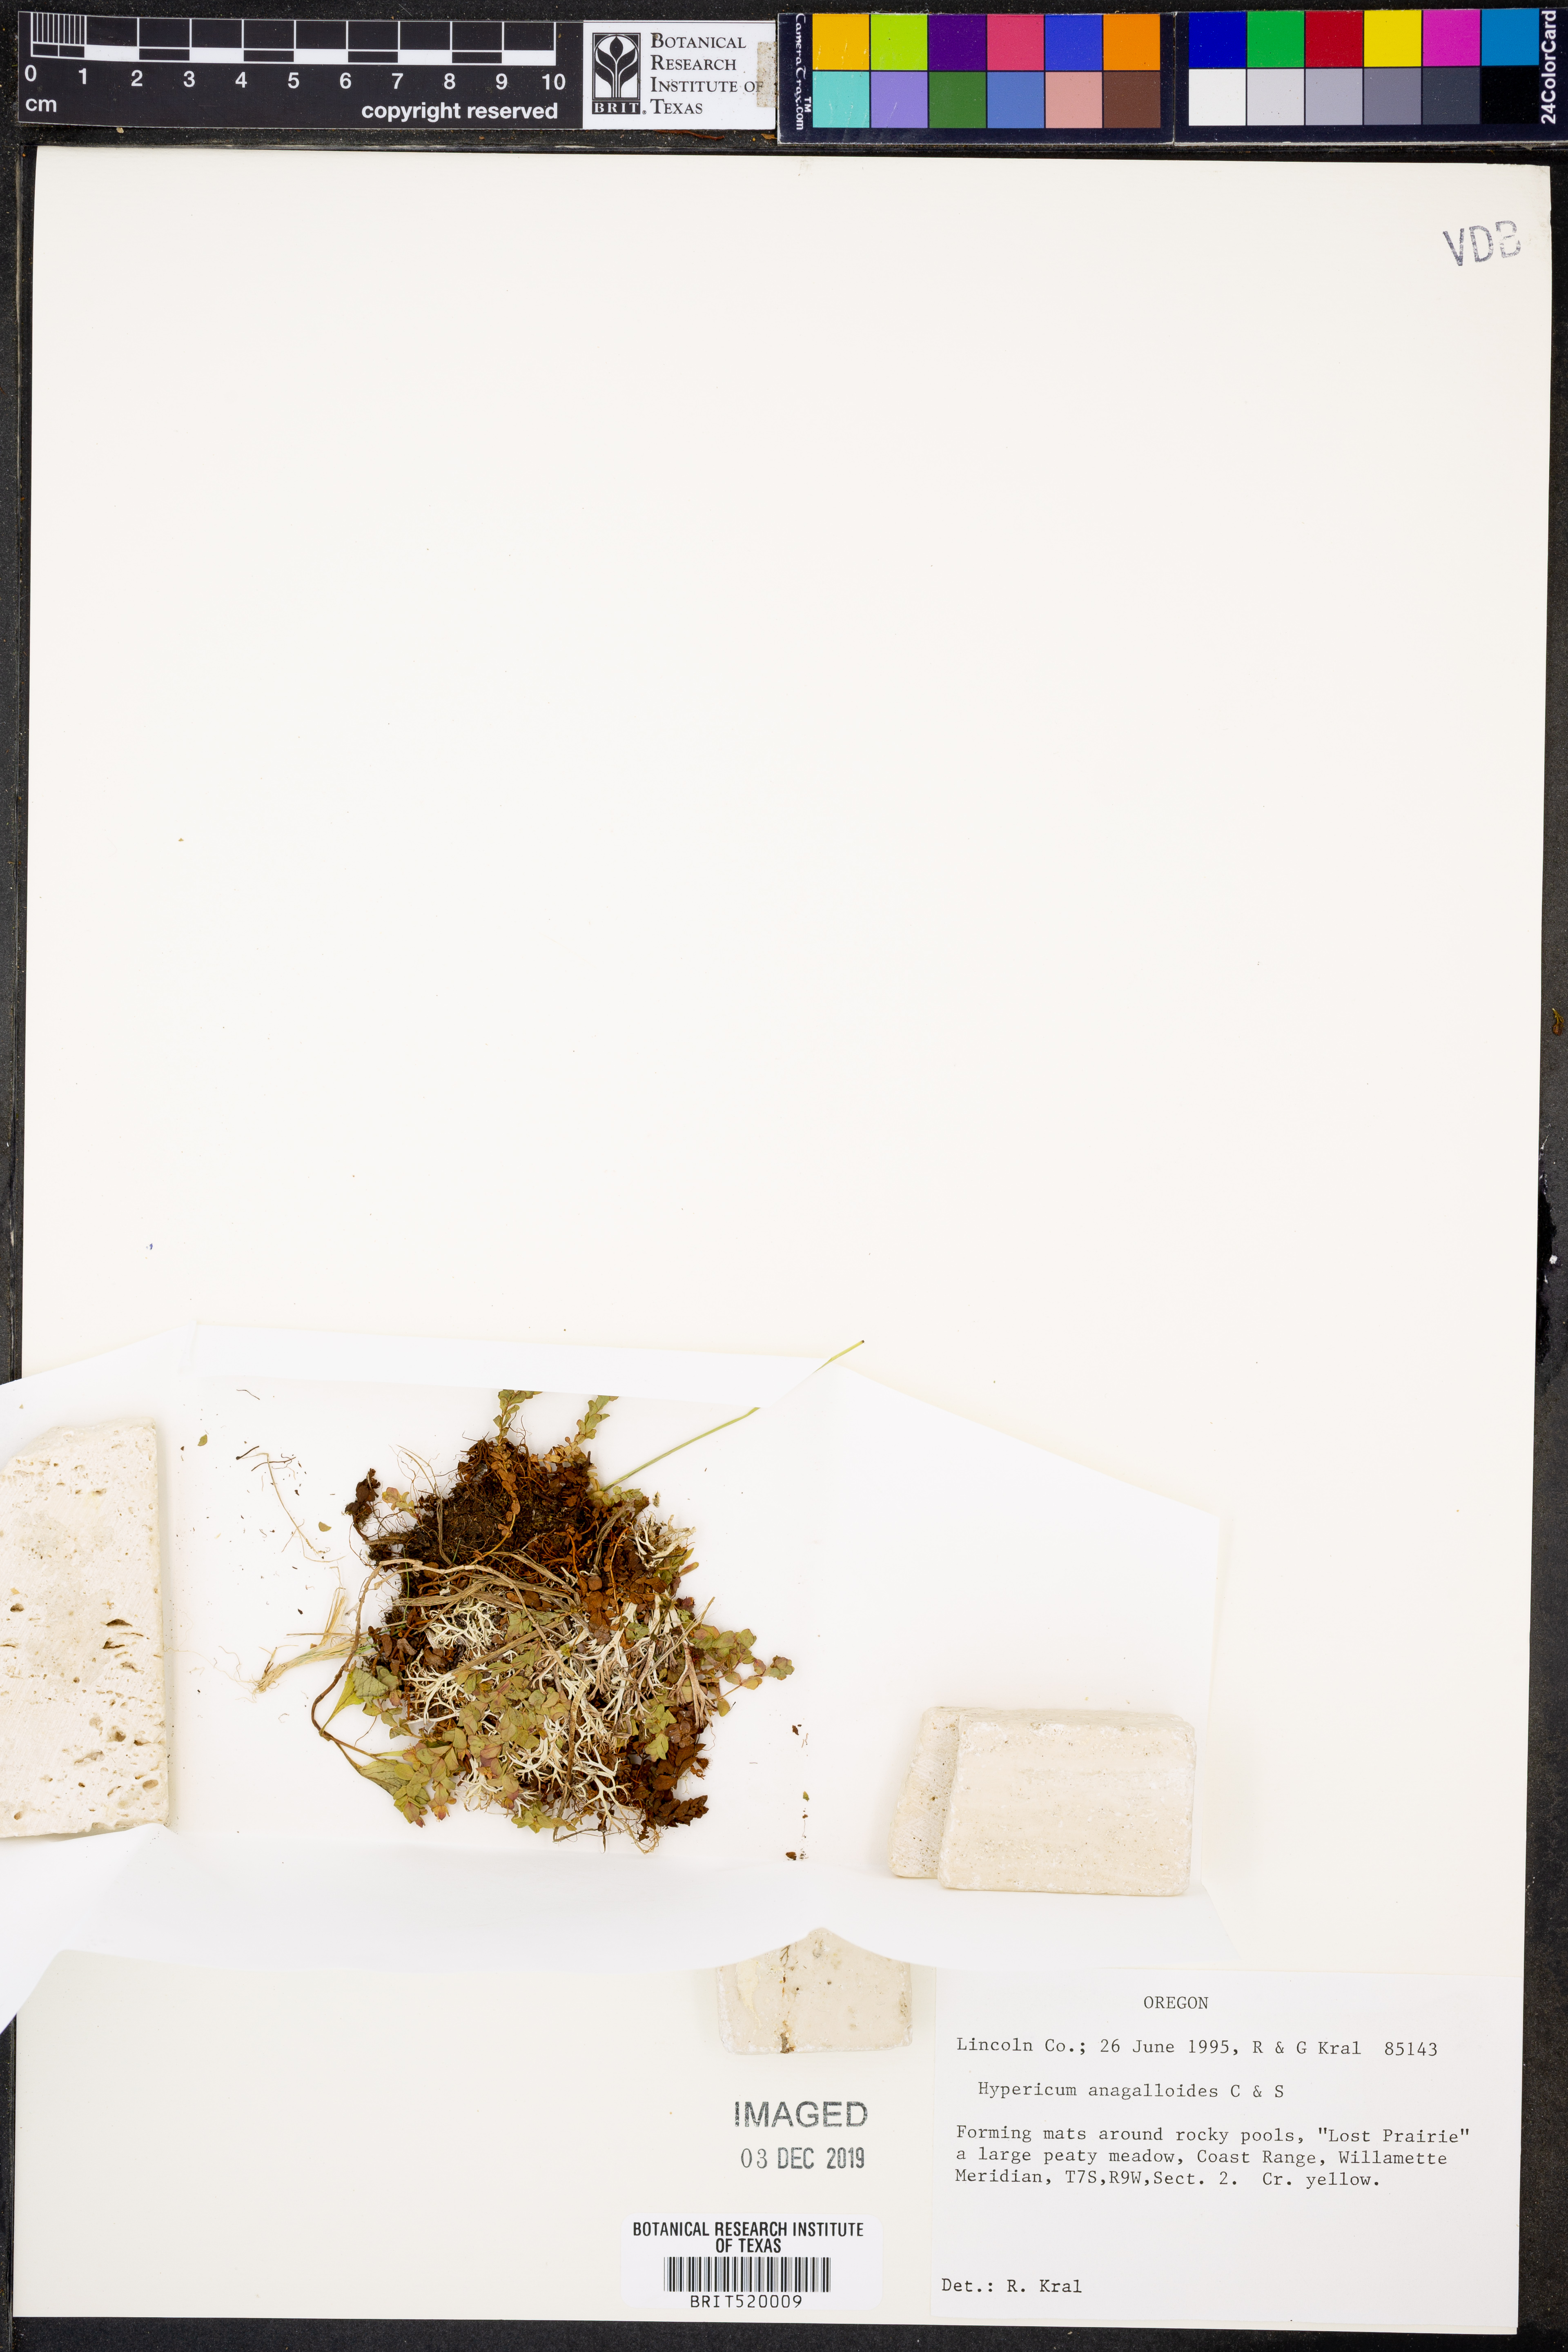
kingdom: Plantae
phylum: Tracheophyta
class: Magnoliopsida
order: Malpighiales
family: Hypericaceae
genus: Hypericum
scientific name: Hypericum anagalloides
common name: Bog st. john's-wort
